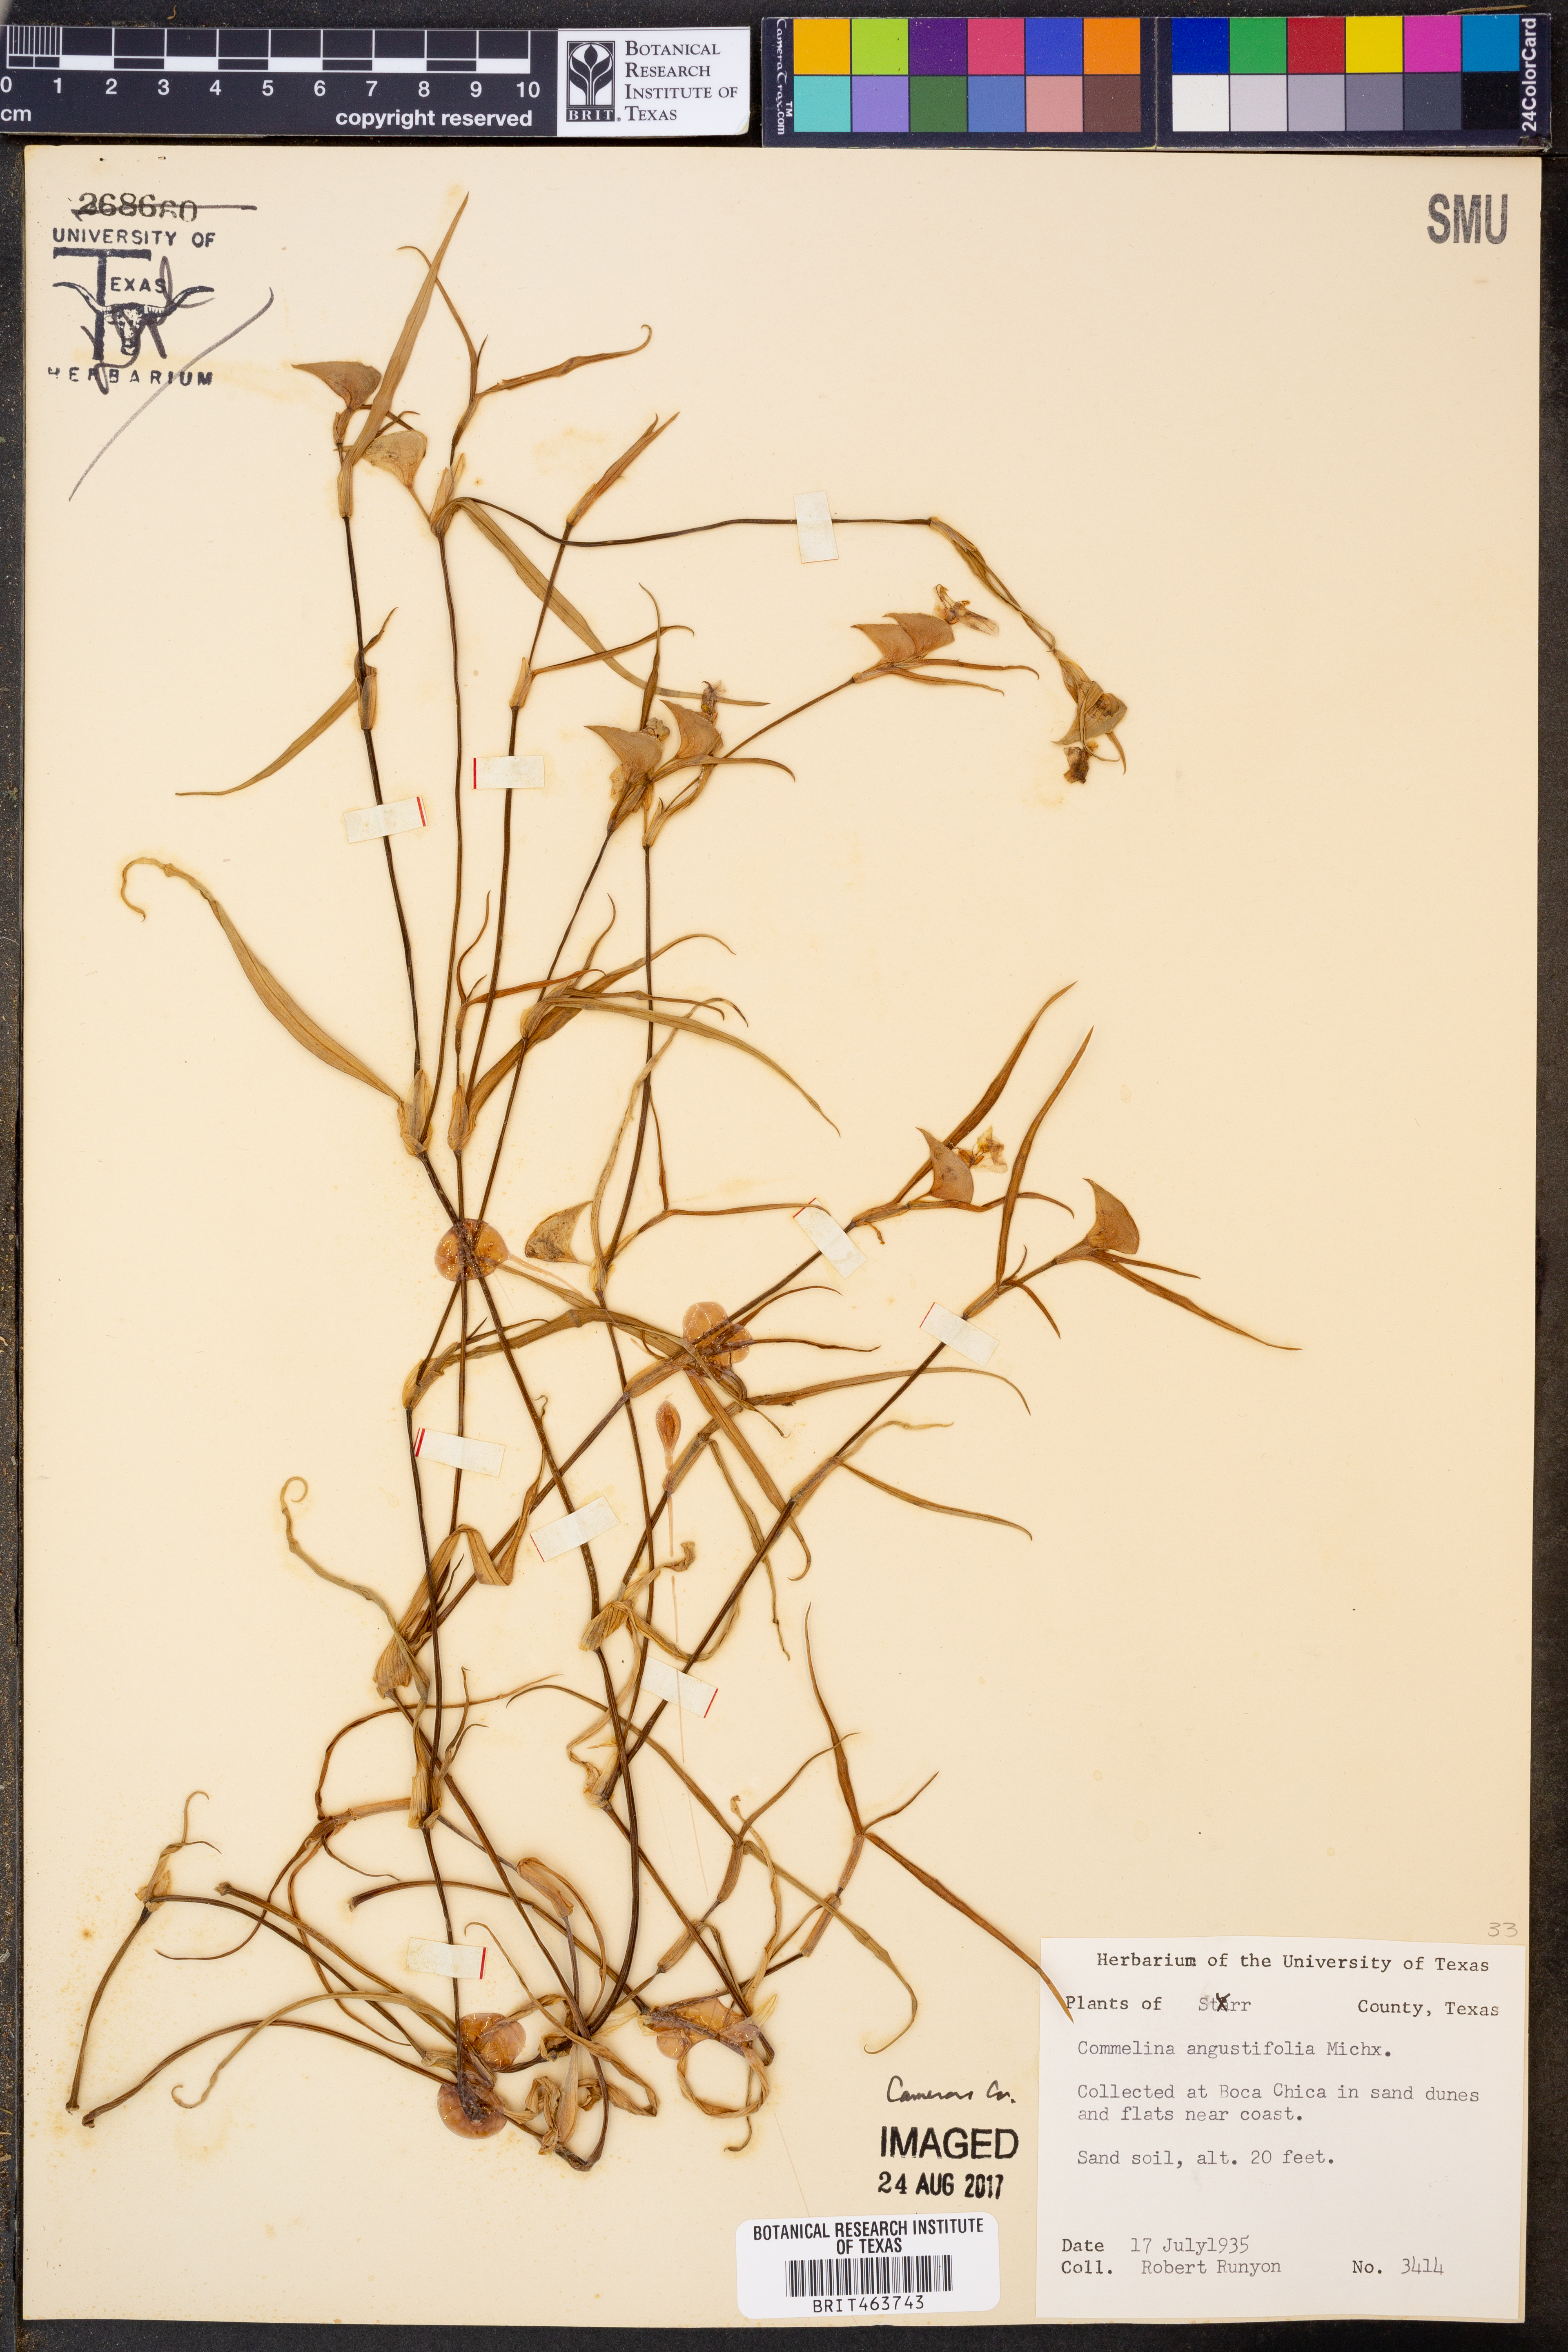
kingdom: Plantae
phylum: Tracheophyta
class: Liliopsida
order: Commelinales
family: Commelinaceae
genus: Commelina
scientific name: Commelina erecta
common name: Blousel blommetjie
